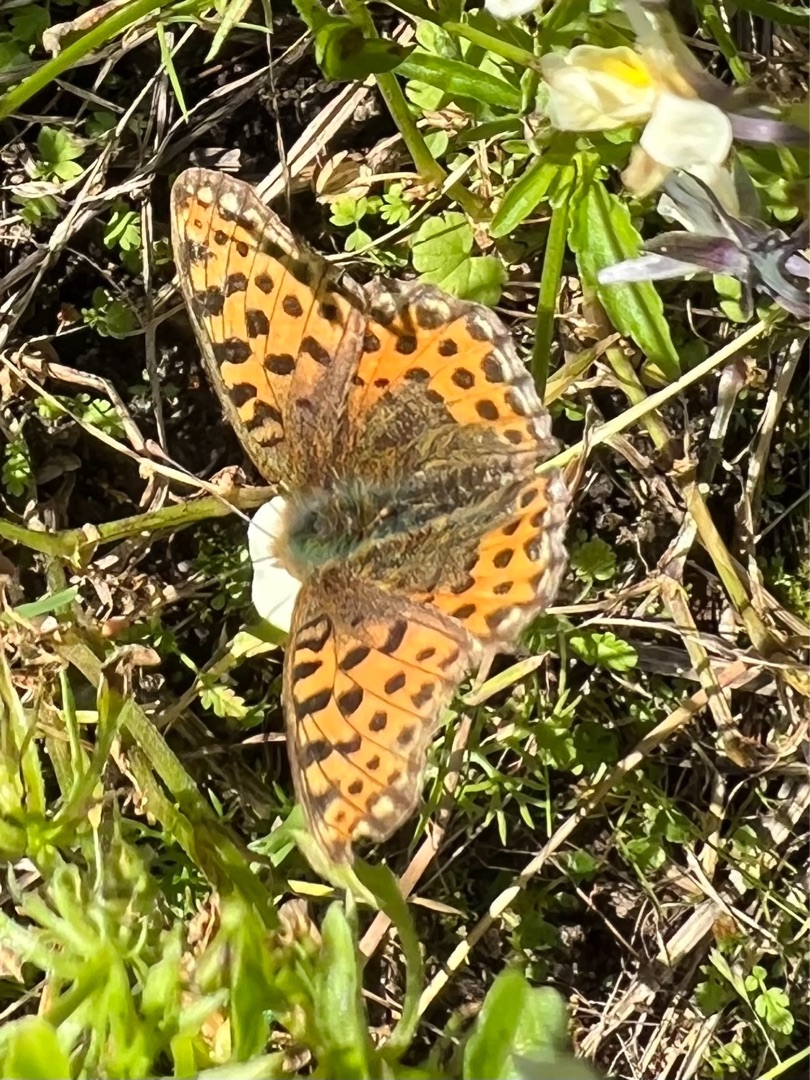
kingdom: Animalia
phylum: Arthropoda
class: Insecta
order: Lepidoptera
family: Nymphalidae
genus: Issoria
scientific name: Issoria lathonia
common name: Storplettet perlemorsommerfugl
